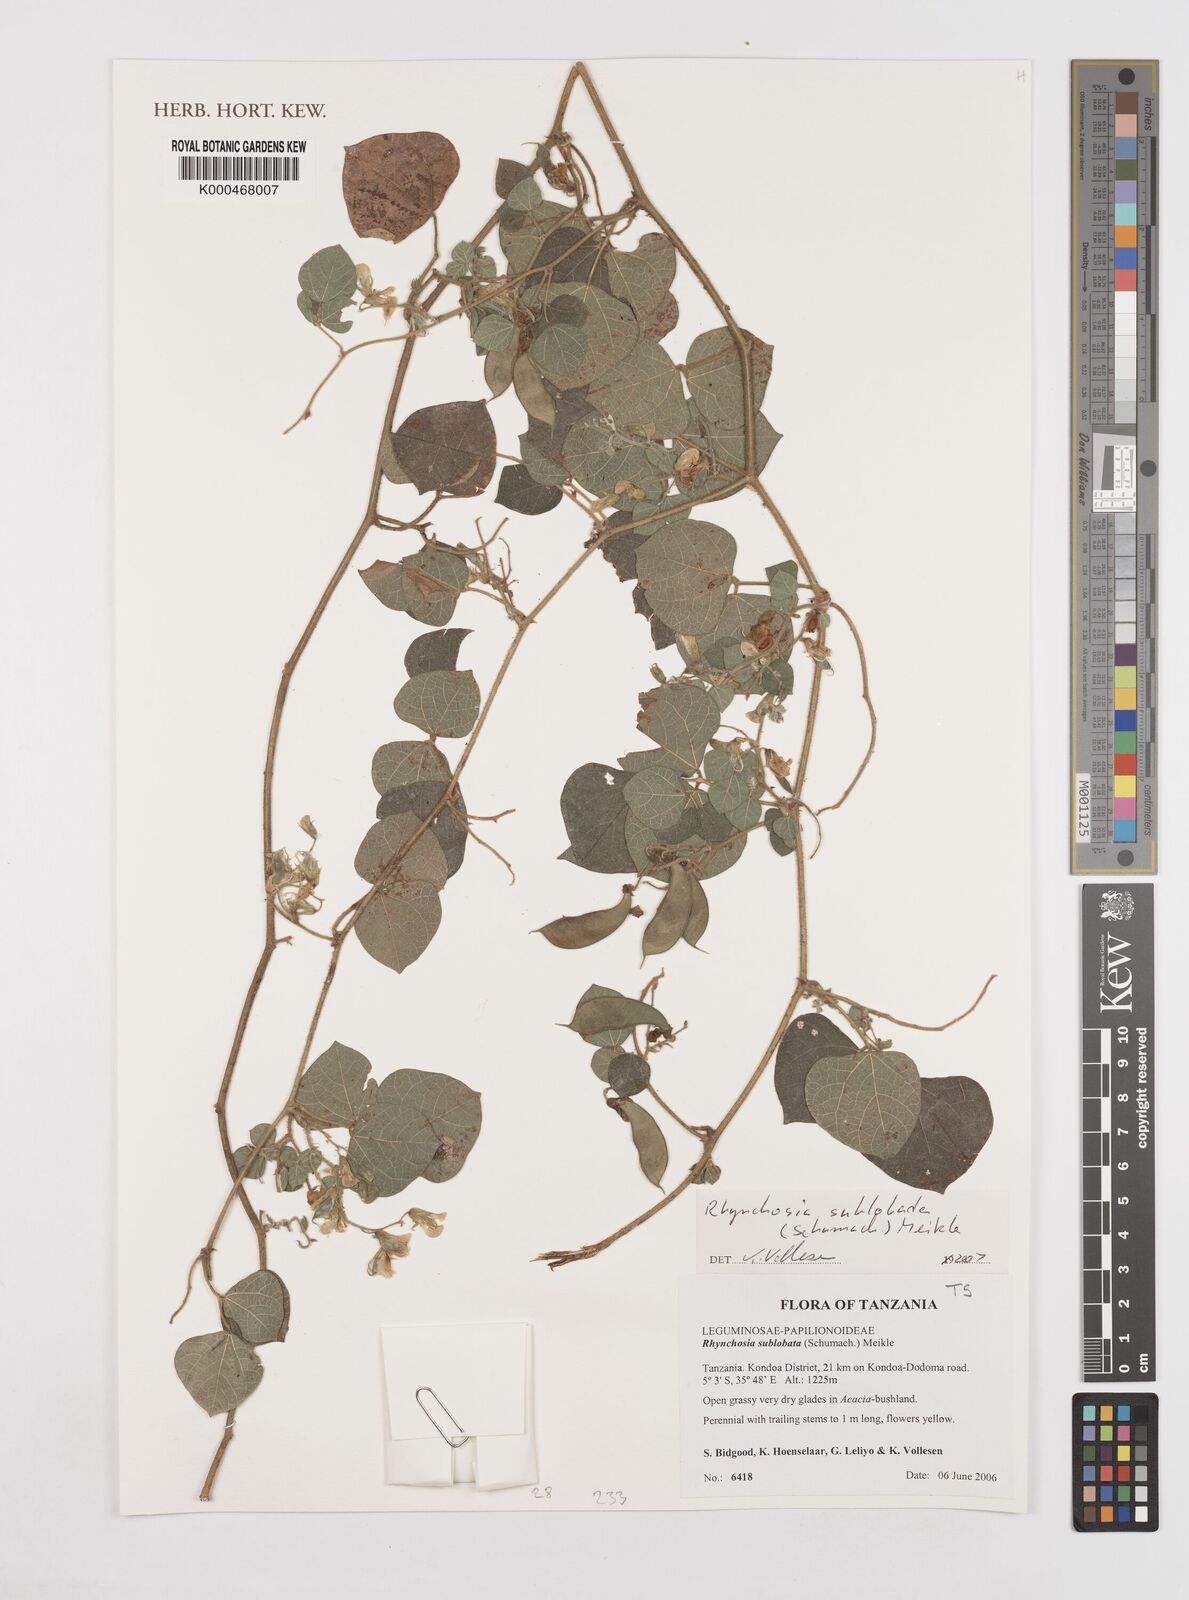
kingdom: Plantae
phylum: Tracheophyta
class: Magnoliopsida
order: Fabales
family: Fabaceae
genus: Rhynchosia
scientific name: Rhynchosia sublobata
